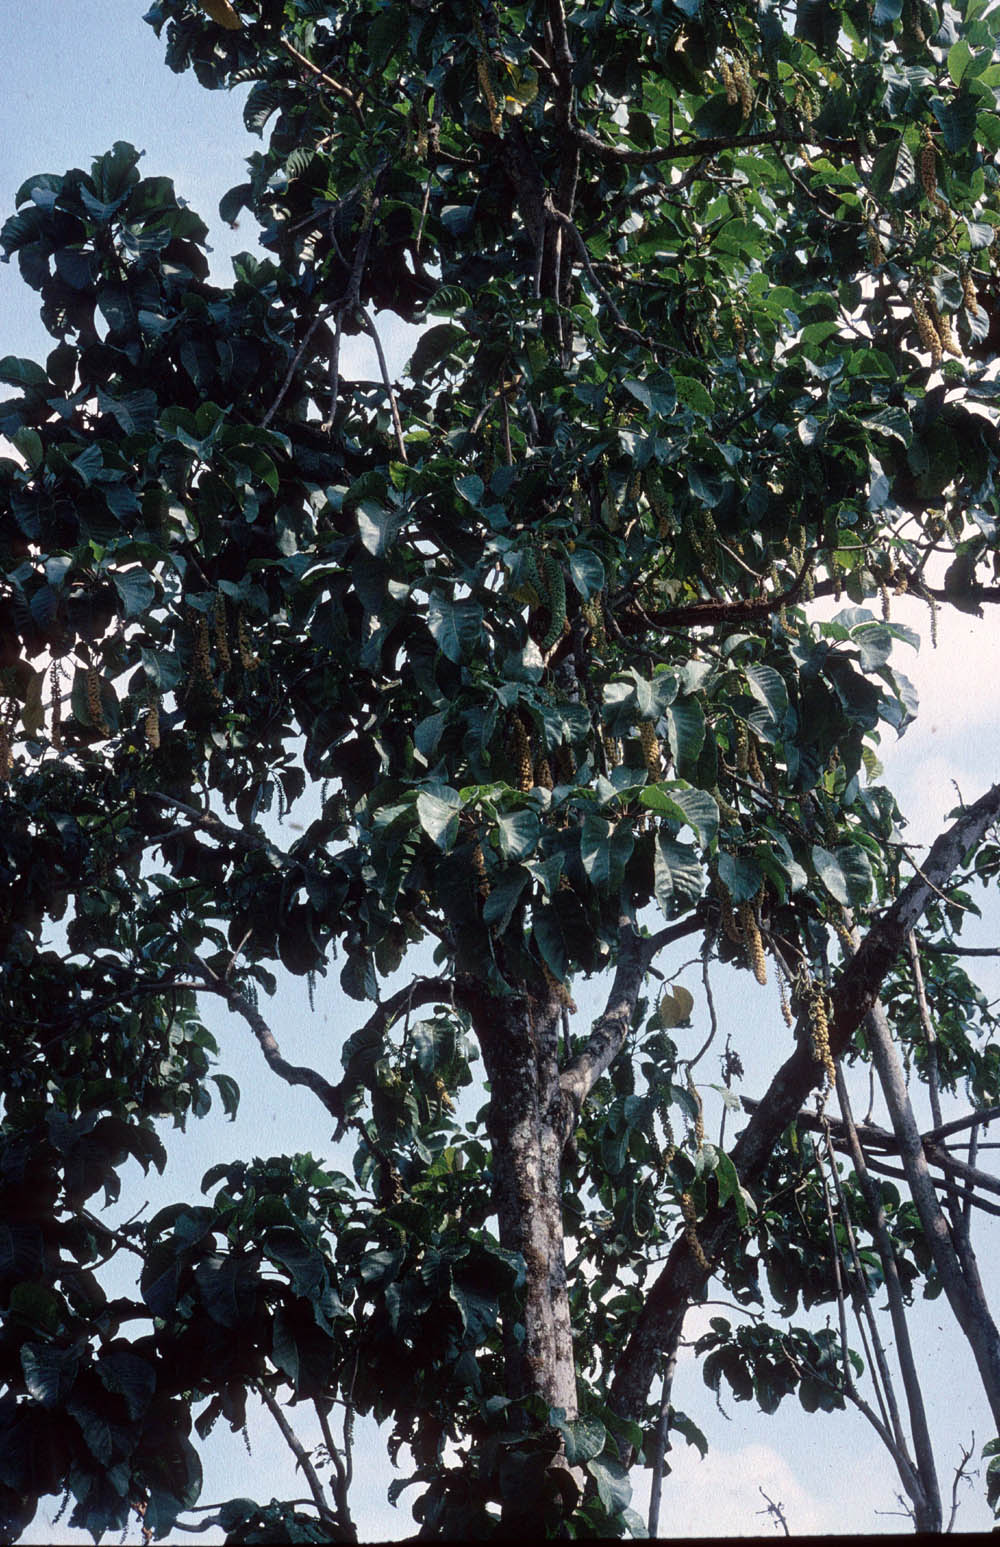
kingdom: Plantae
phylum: Tracheophyta
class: Magnoliopsida
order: Caryophyllales
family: Phytolaccaceae
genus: Phytolacca
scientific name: Phytolacca dioica
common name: Pokeweed
